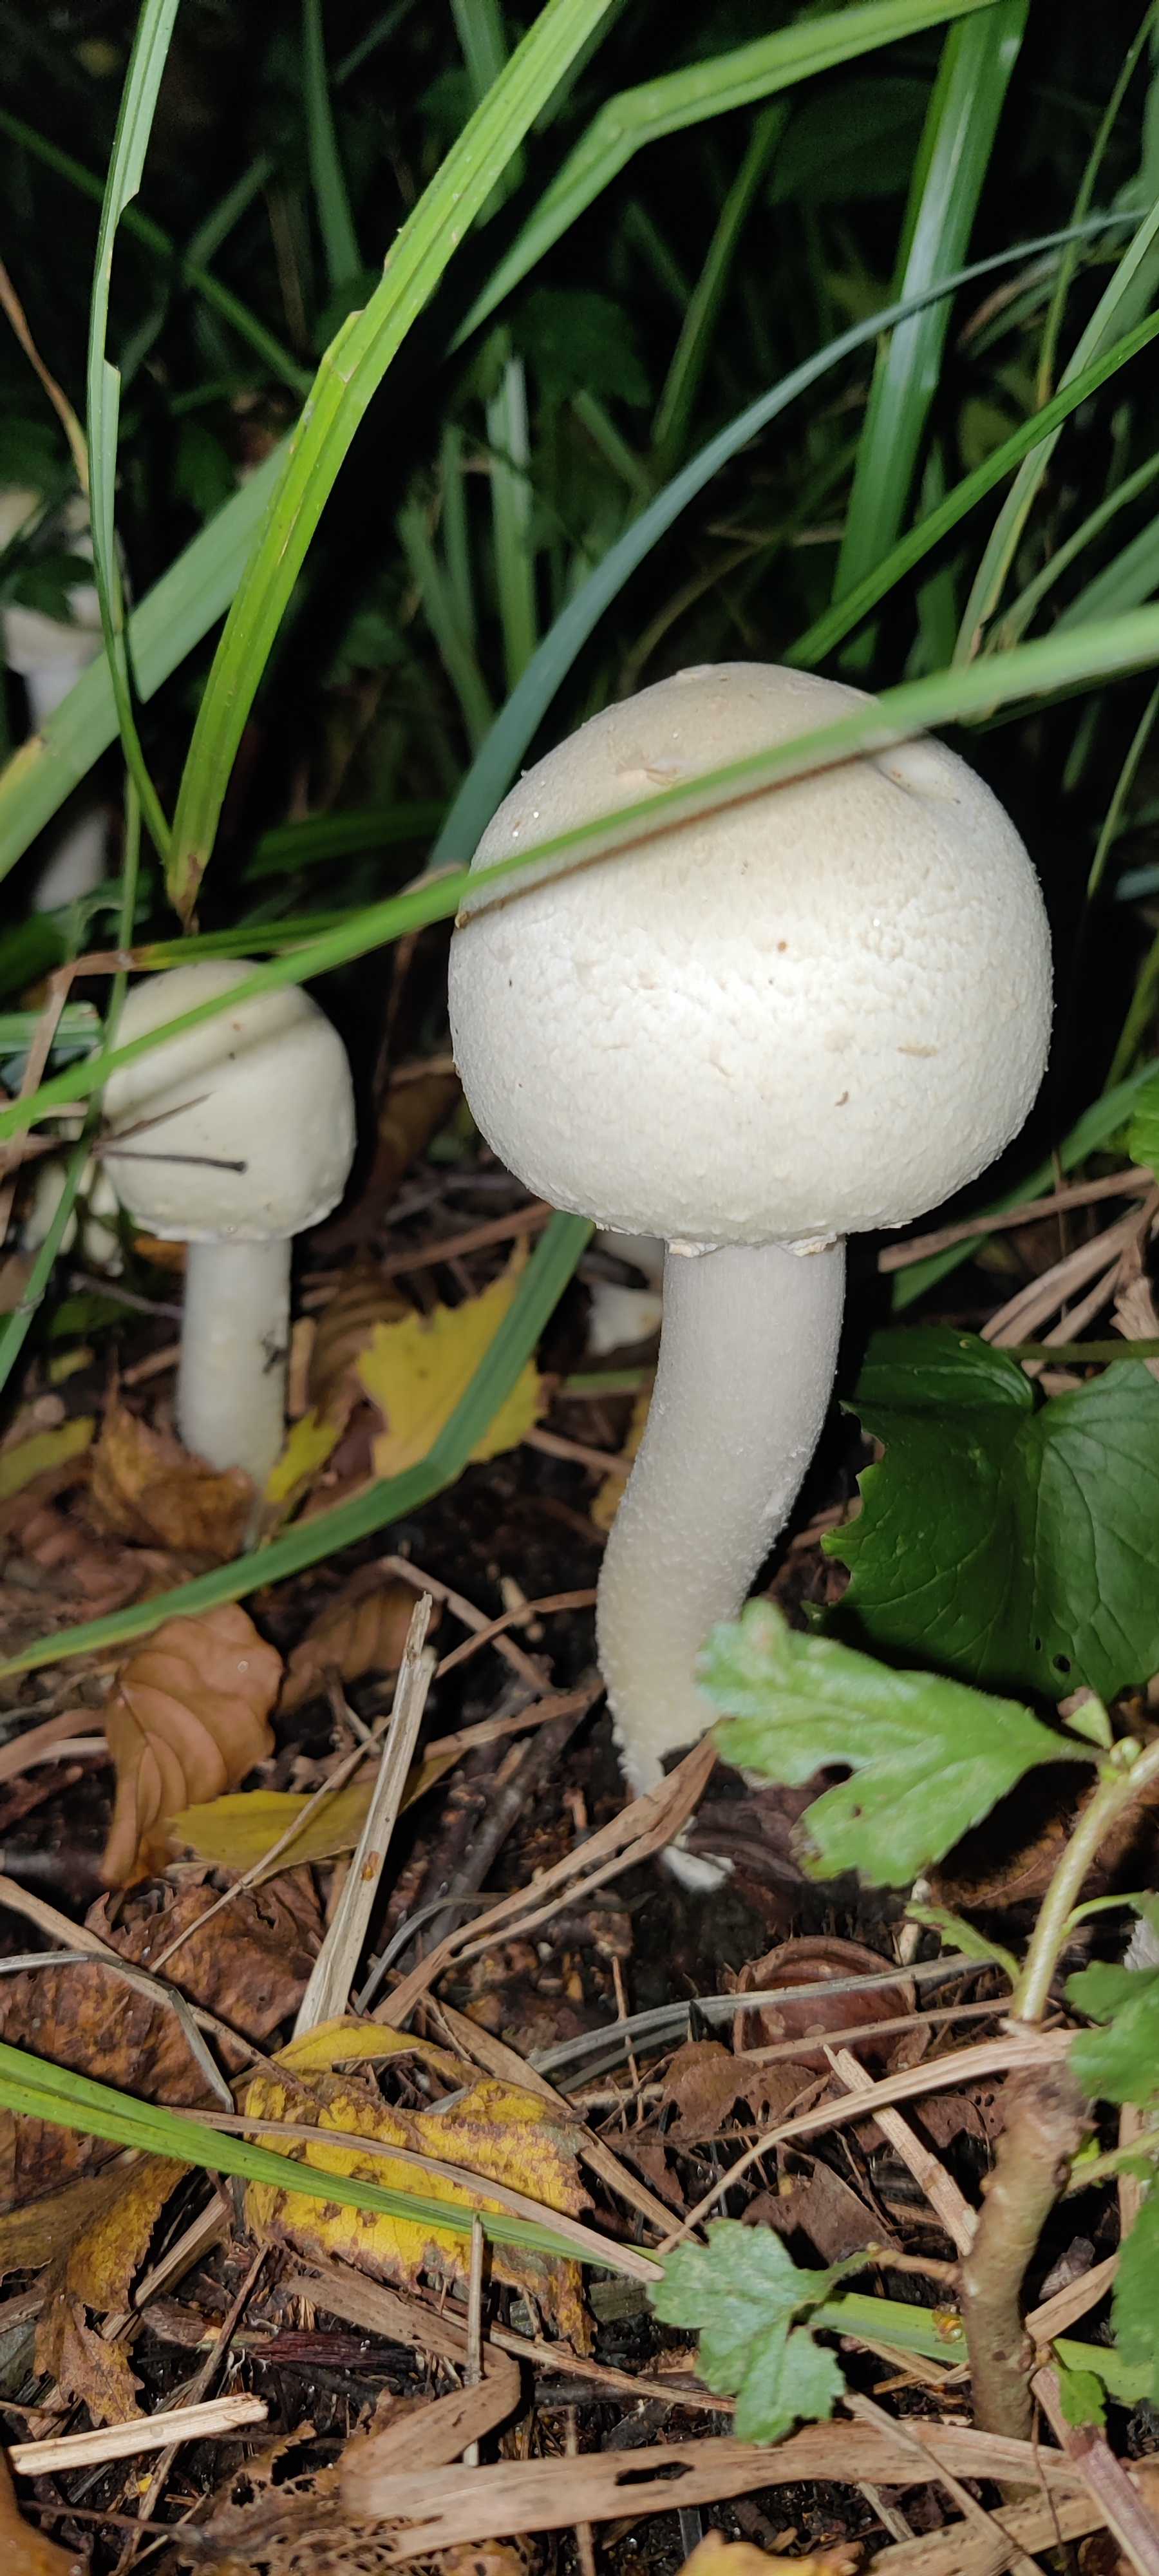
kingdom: Fungi
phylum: Basidiomycota
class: Agaricomycetes
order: Agaricales
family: Agaricaceae
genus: Agaricus
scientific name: Agaricus
